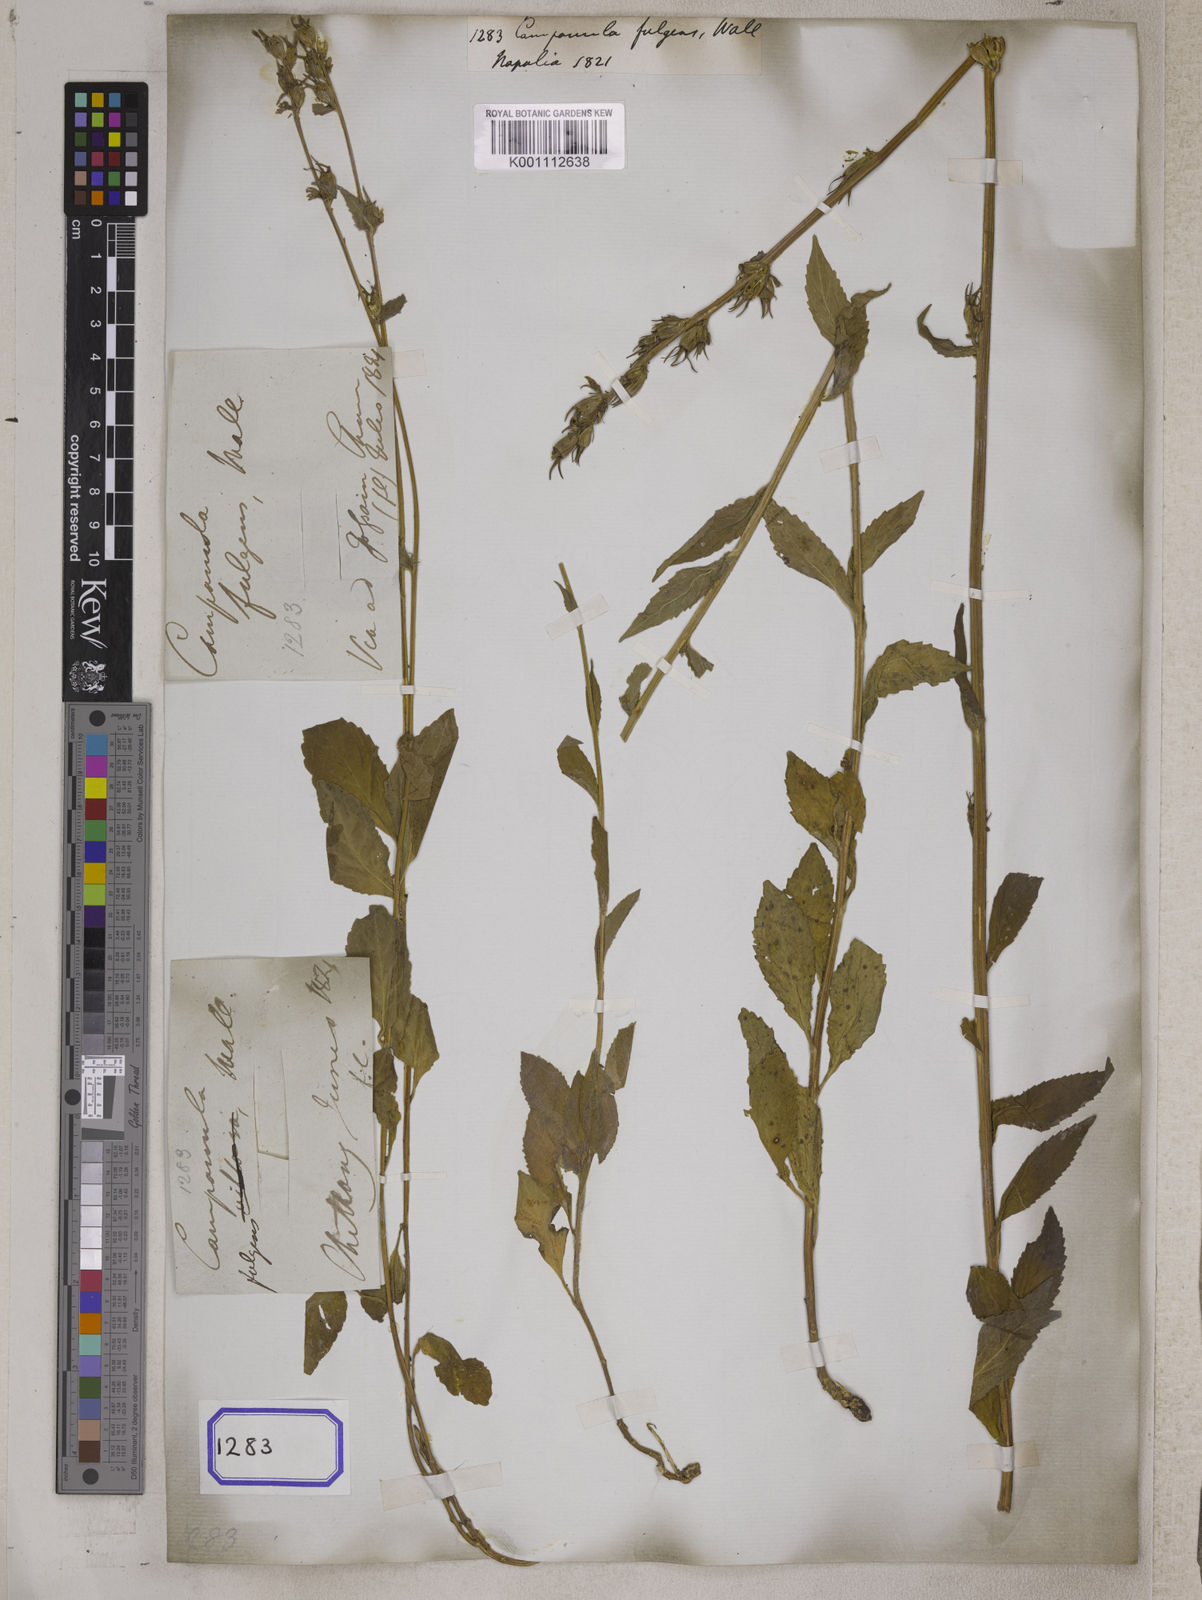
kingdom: Plantae
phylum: Tracheophyta
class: Magnoliopsida
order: Asterales
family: Campanulaceae
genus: Asyneuma
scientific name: Asyneuma fulgens
